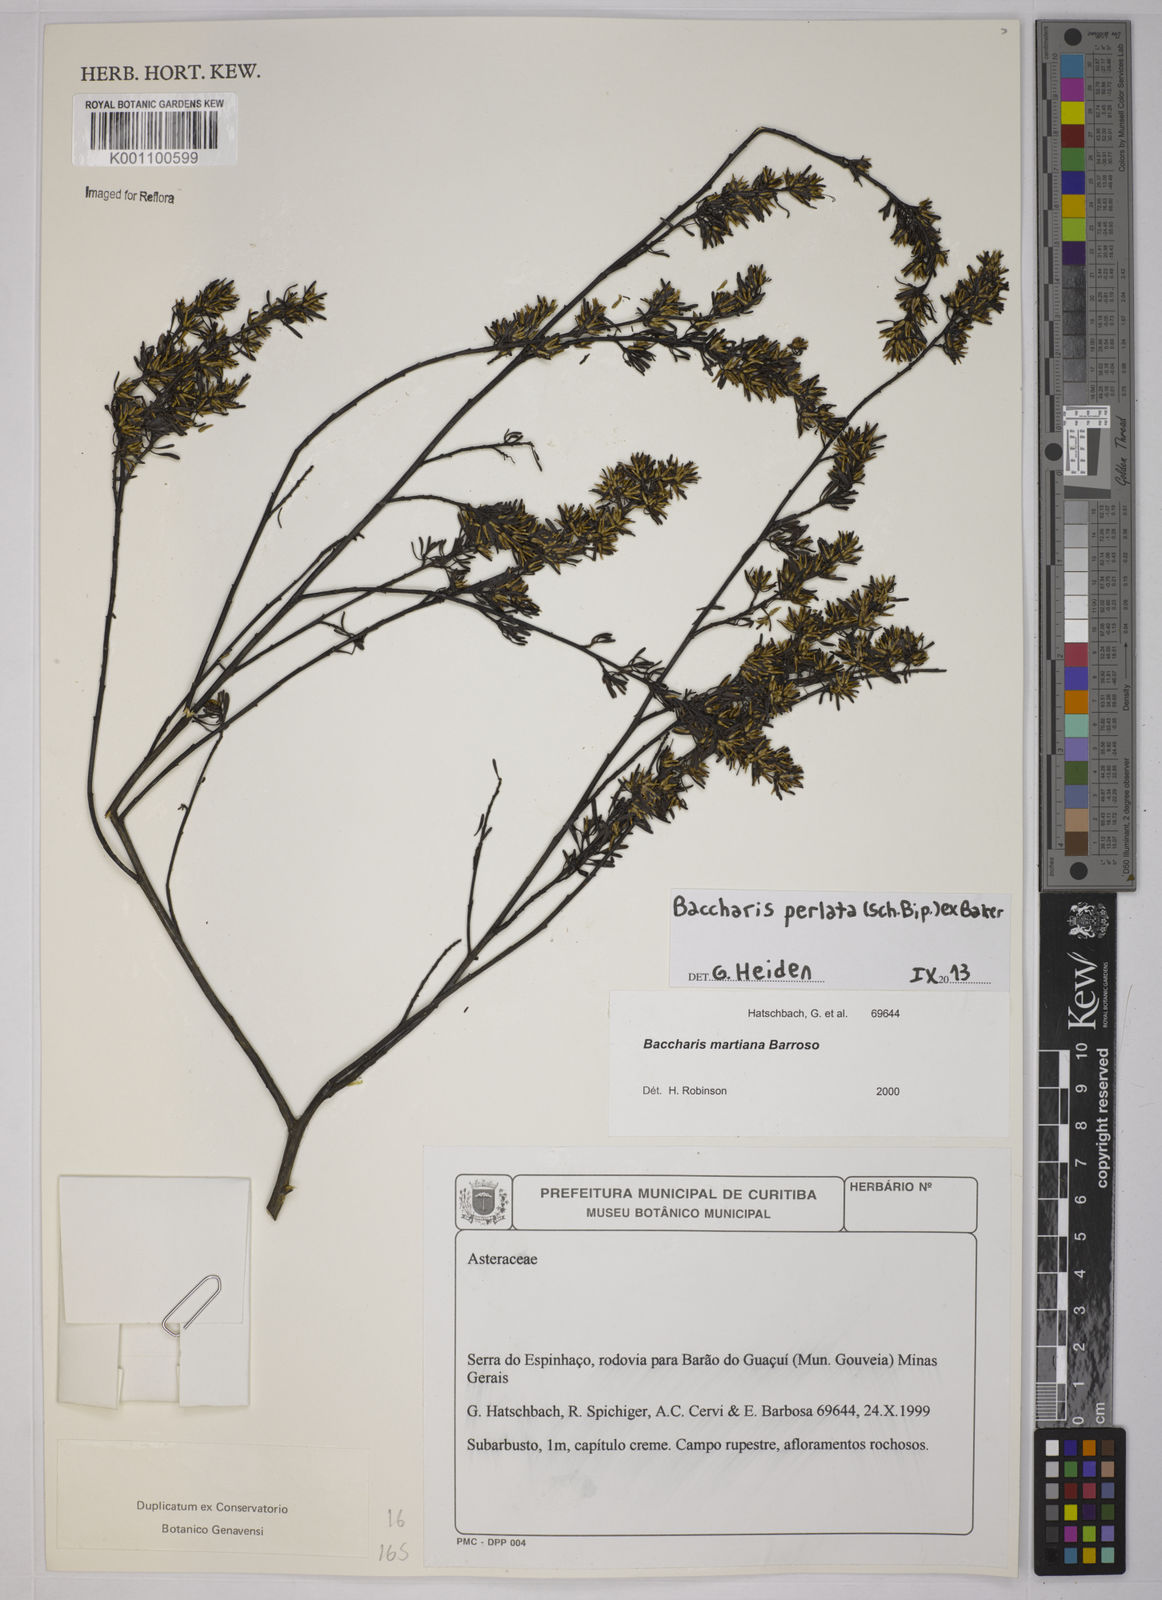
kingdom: Plantae
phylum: Tracheophyta
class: Magnoliopsida
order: Asterales
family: Asteraceae
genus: Baccharis
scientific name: Baccharis xiphophylla
